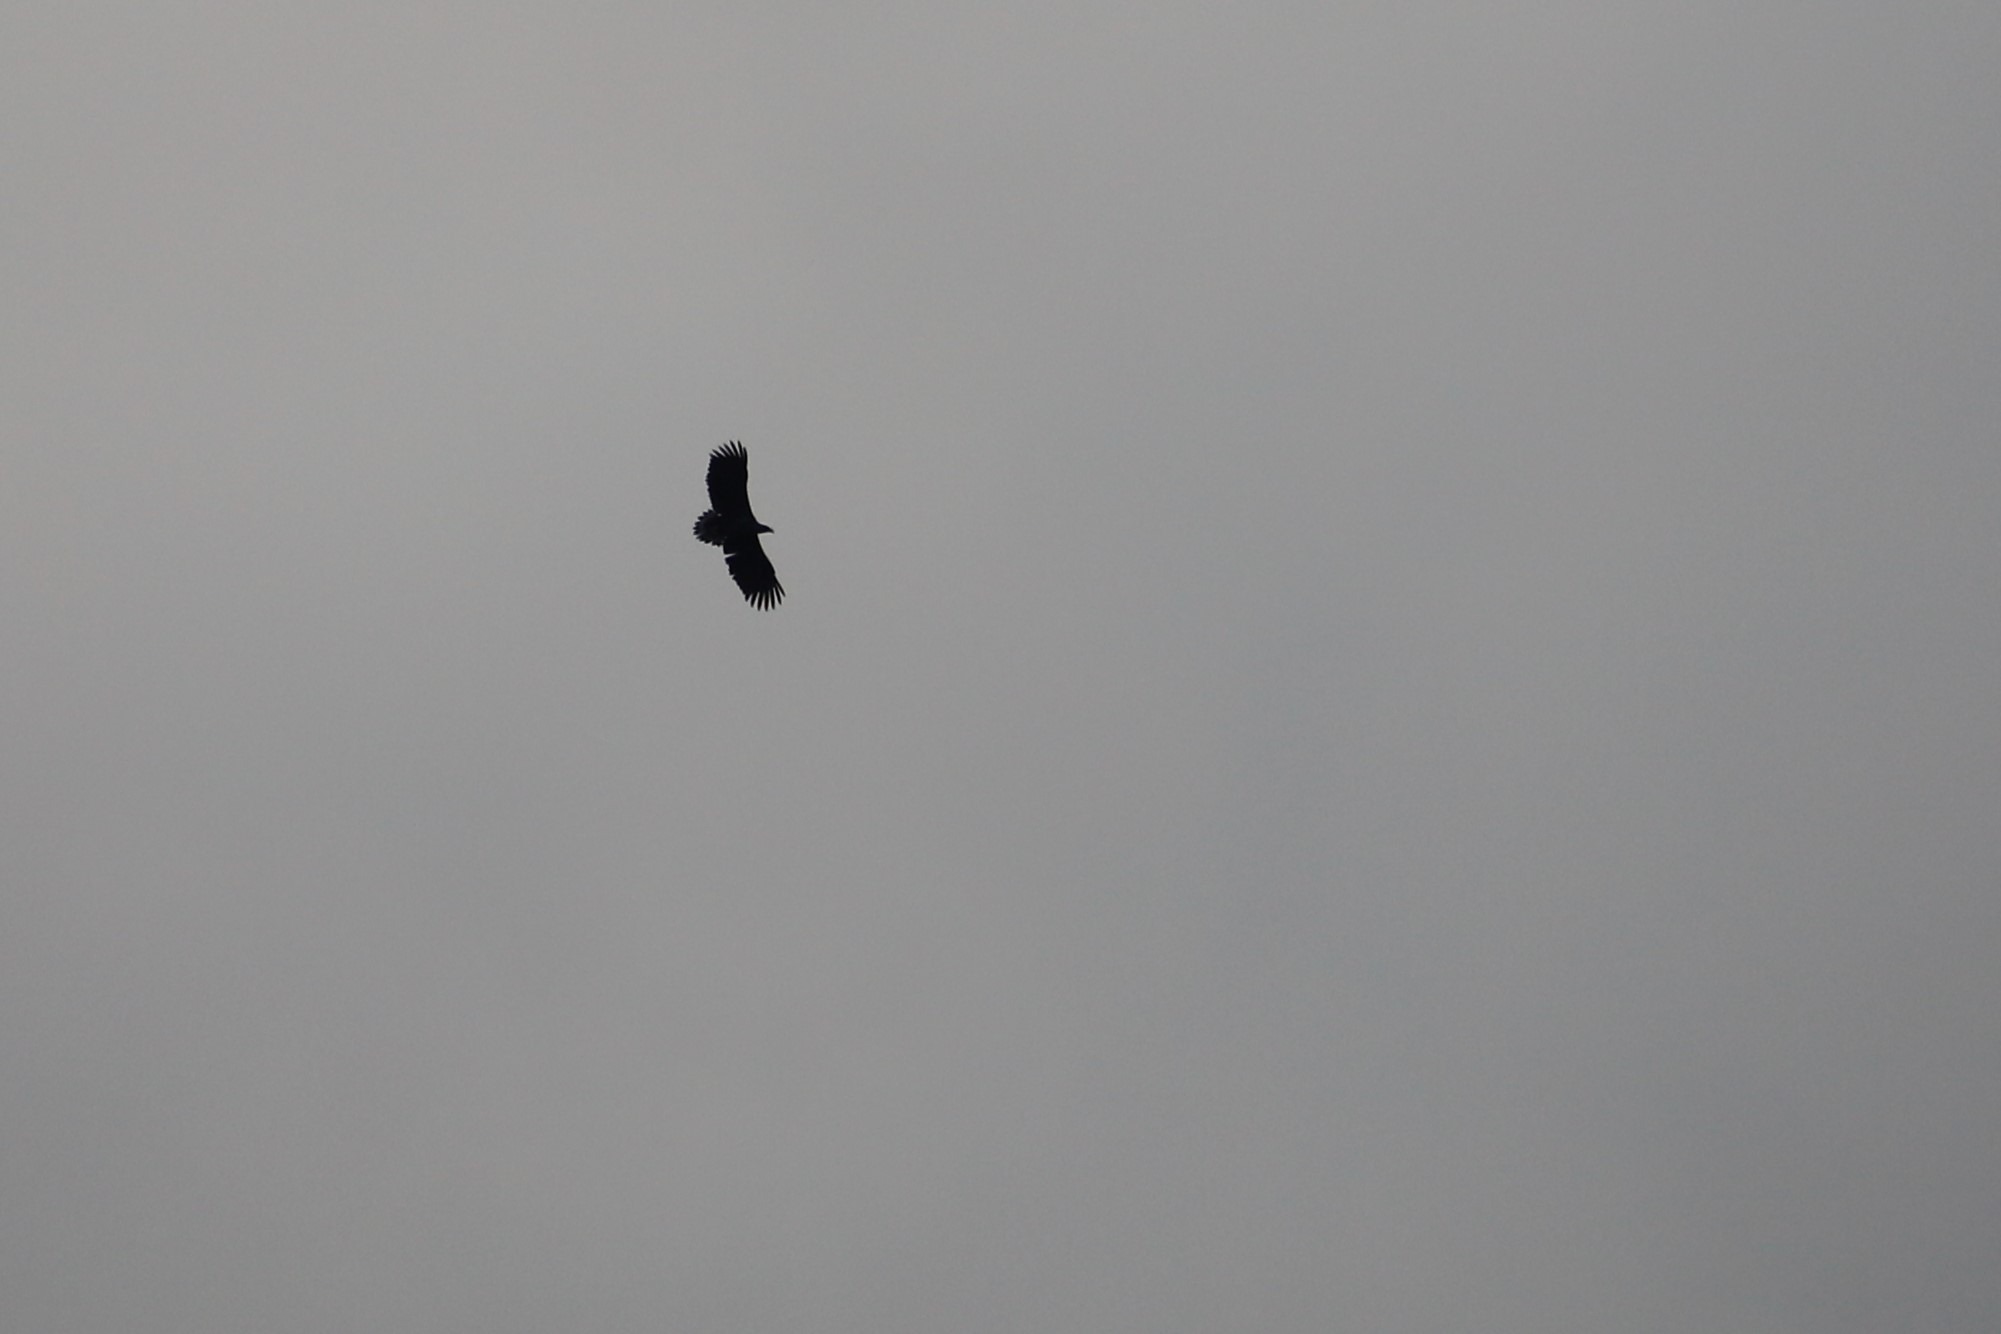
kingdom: Animalia
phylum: Chordata
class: Aves
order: Accipitriformes
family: Accipitridae
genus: Haliaeetus
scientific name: Haliaeetus albicilla
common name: Havørn
